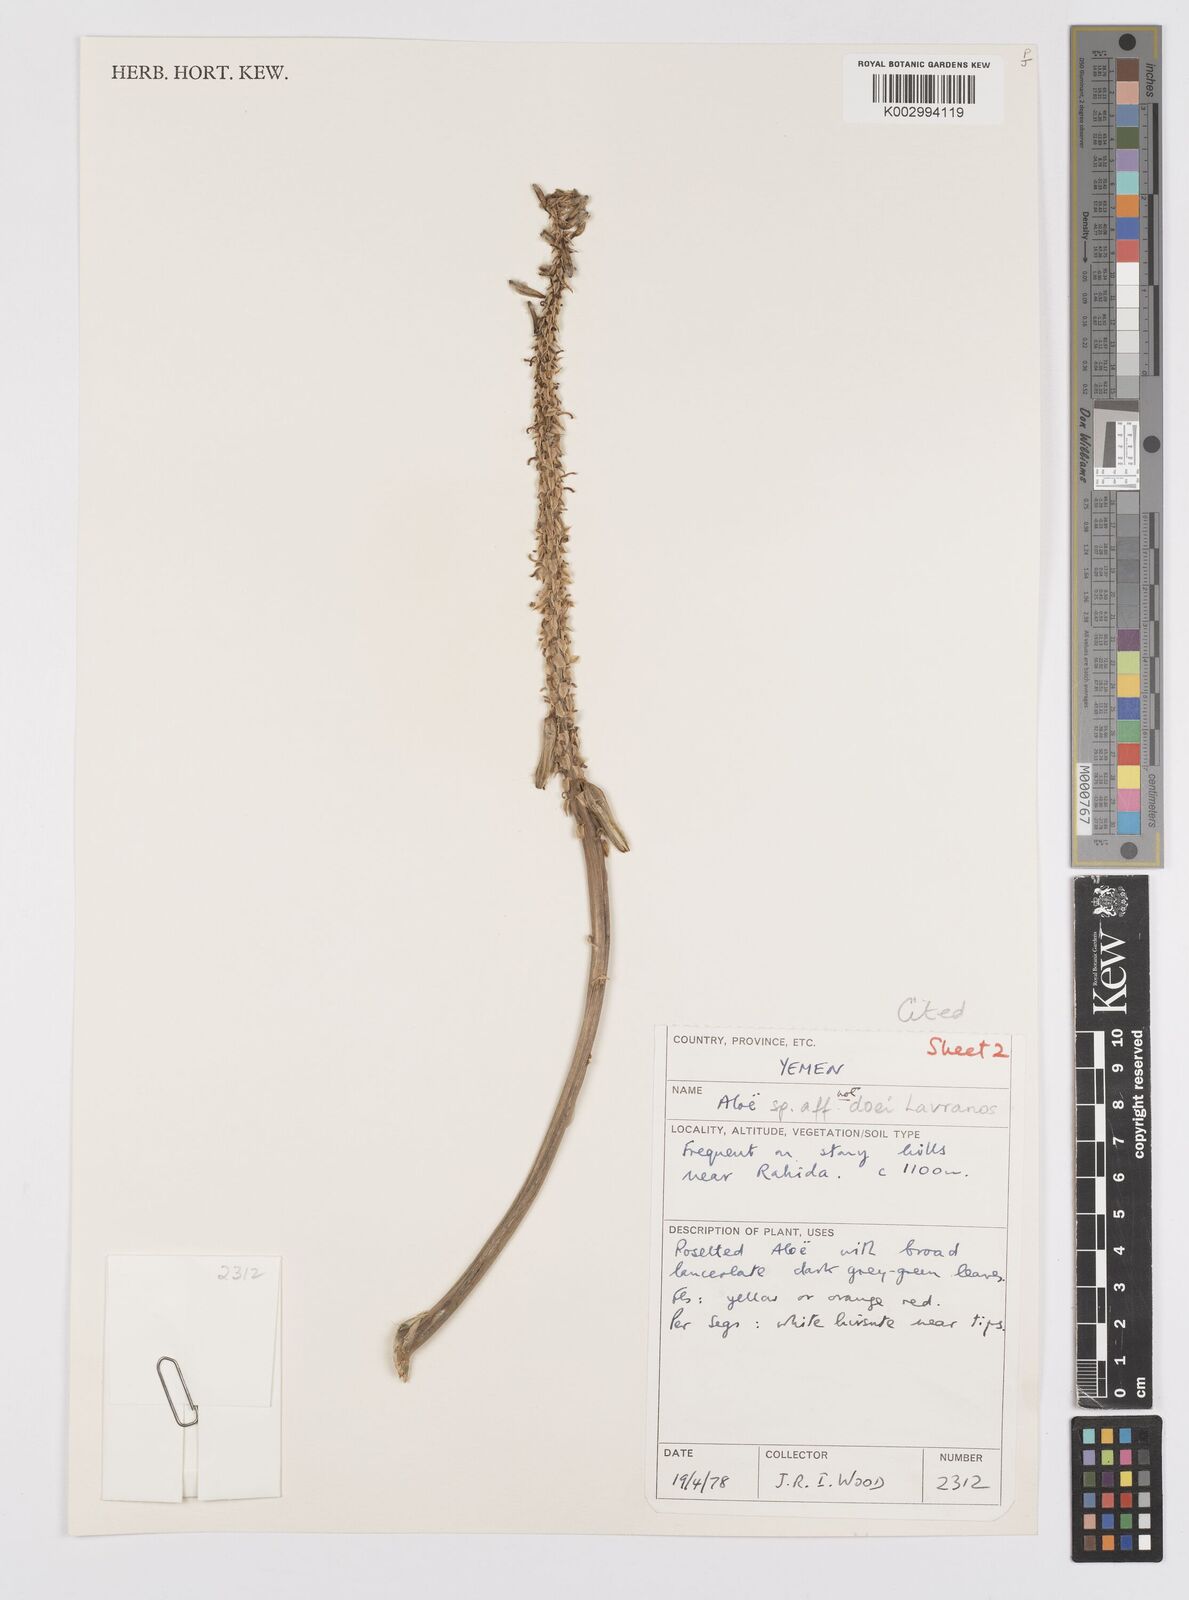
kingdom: Plantae
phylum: Tracheophyta
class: Liliopsida
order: Asparagales
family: Asphodelaceae
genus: Aloe
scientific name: Aloe lavranosii
